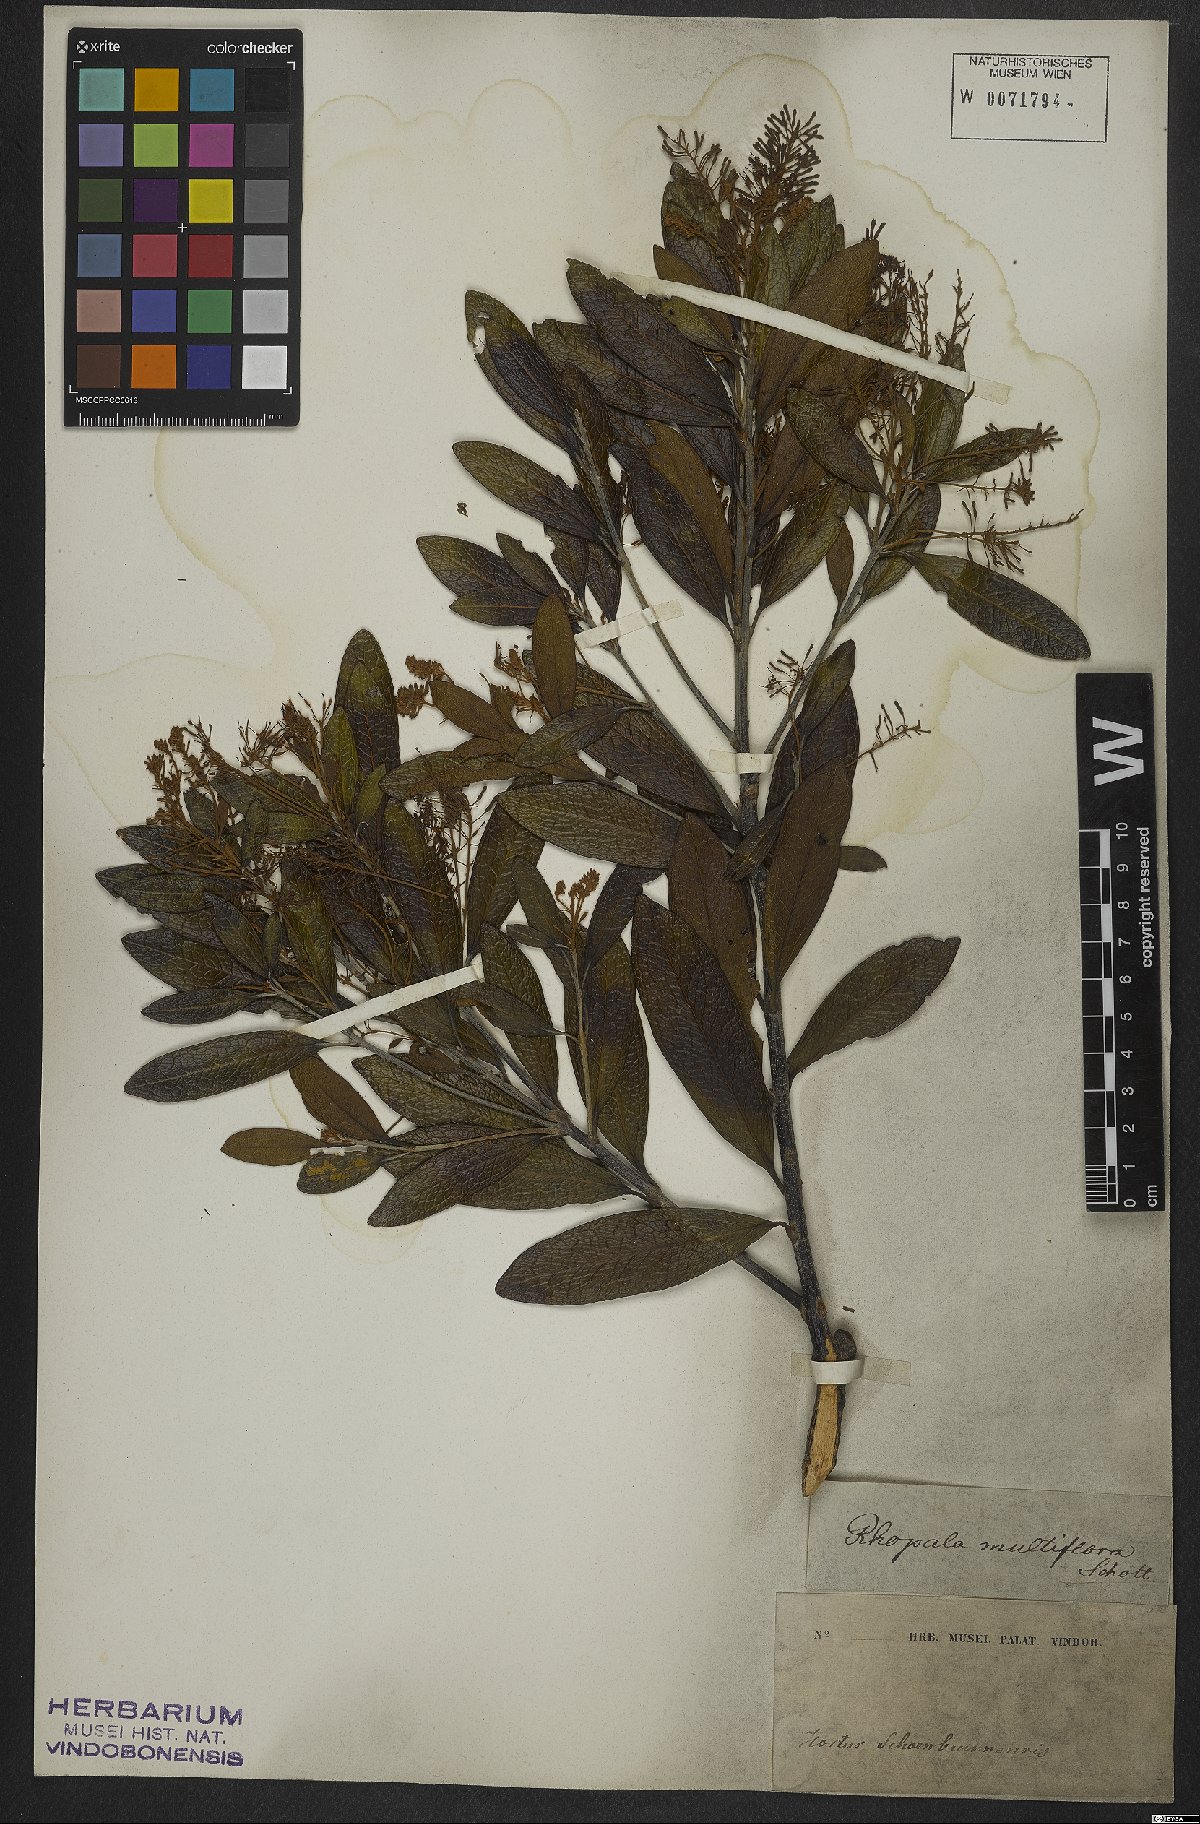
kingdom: Plantae
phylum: Tracheophyta
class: Magnoliopsida
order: Proteales
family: Proteaceae
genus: Panopsis
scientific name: Panopsis multiflora
